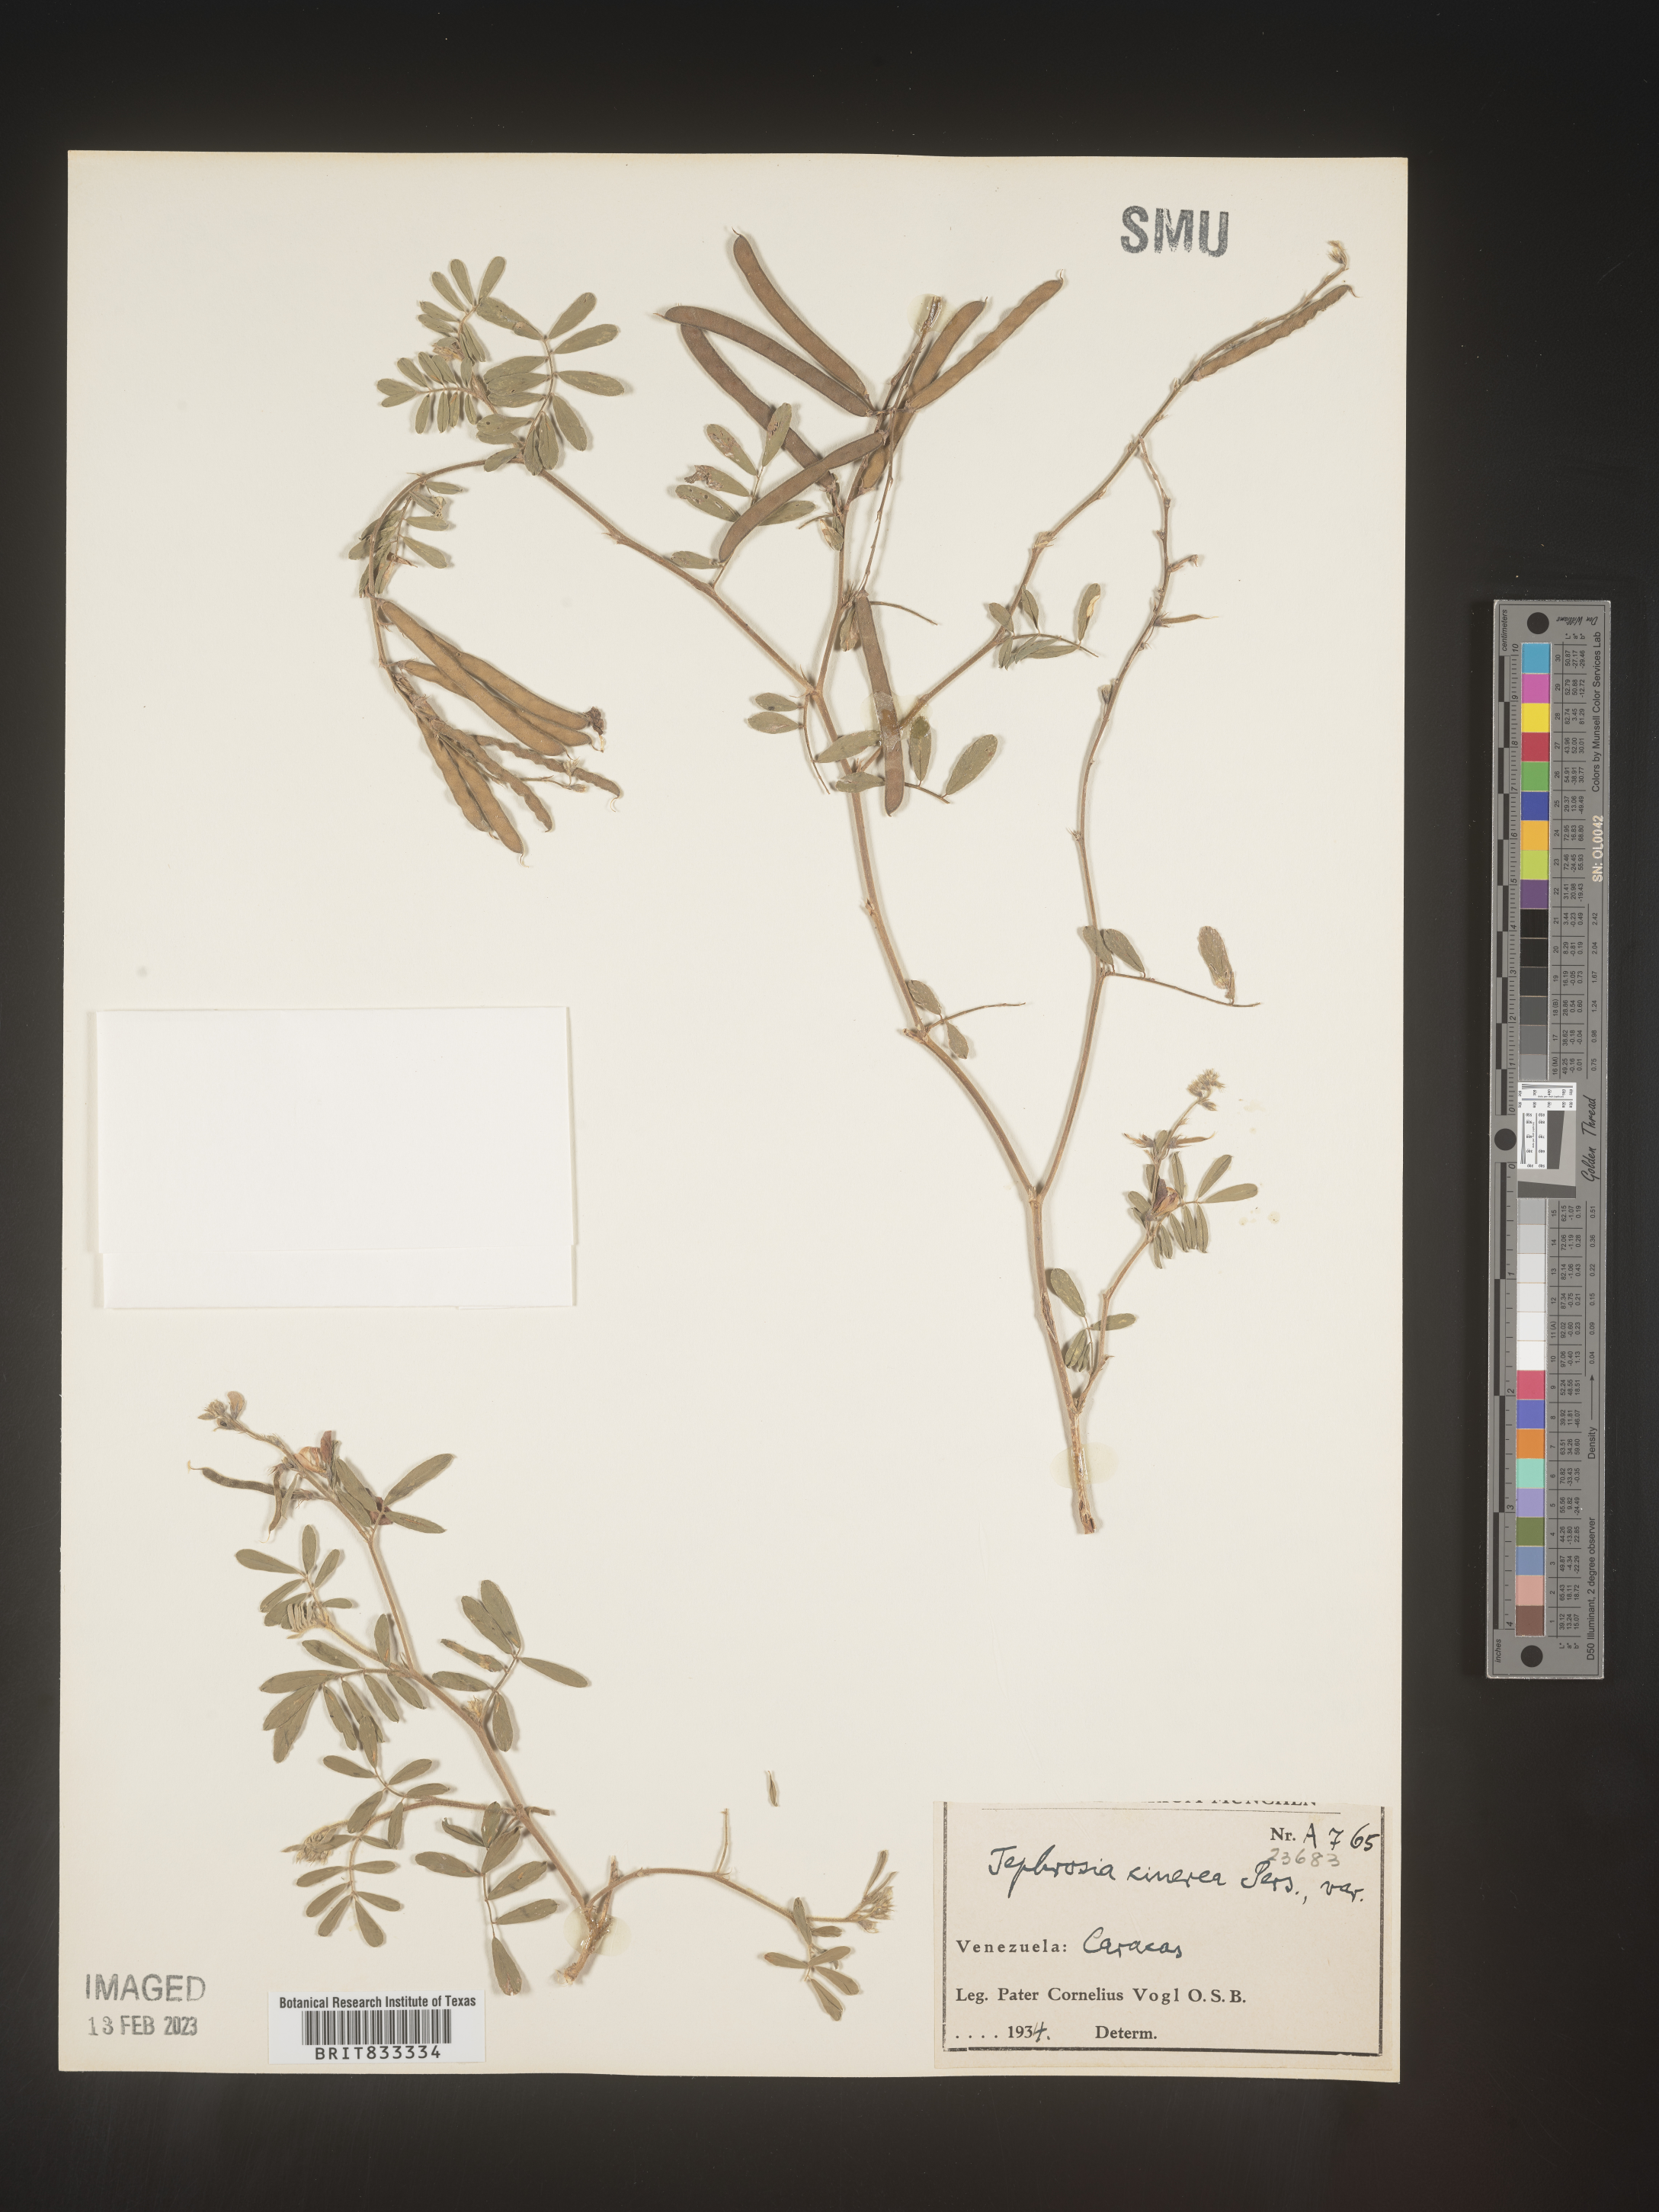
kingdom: Plantae
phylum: Tracheophyta
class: Magnoliopsida
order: Fabales
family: Fabaceae
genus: Tephrosia
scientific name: Tephrosia
